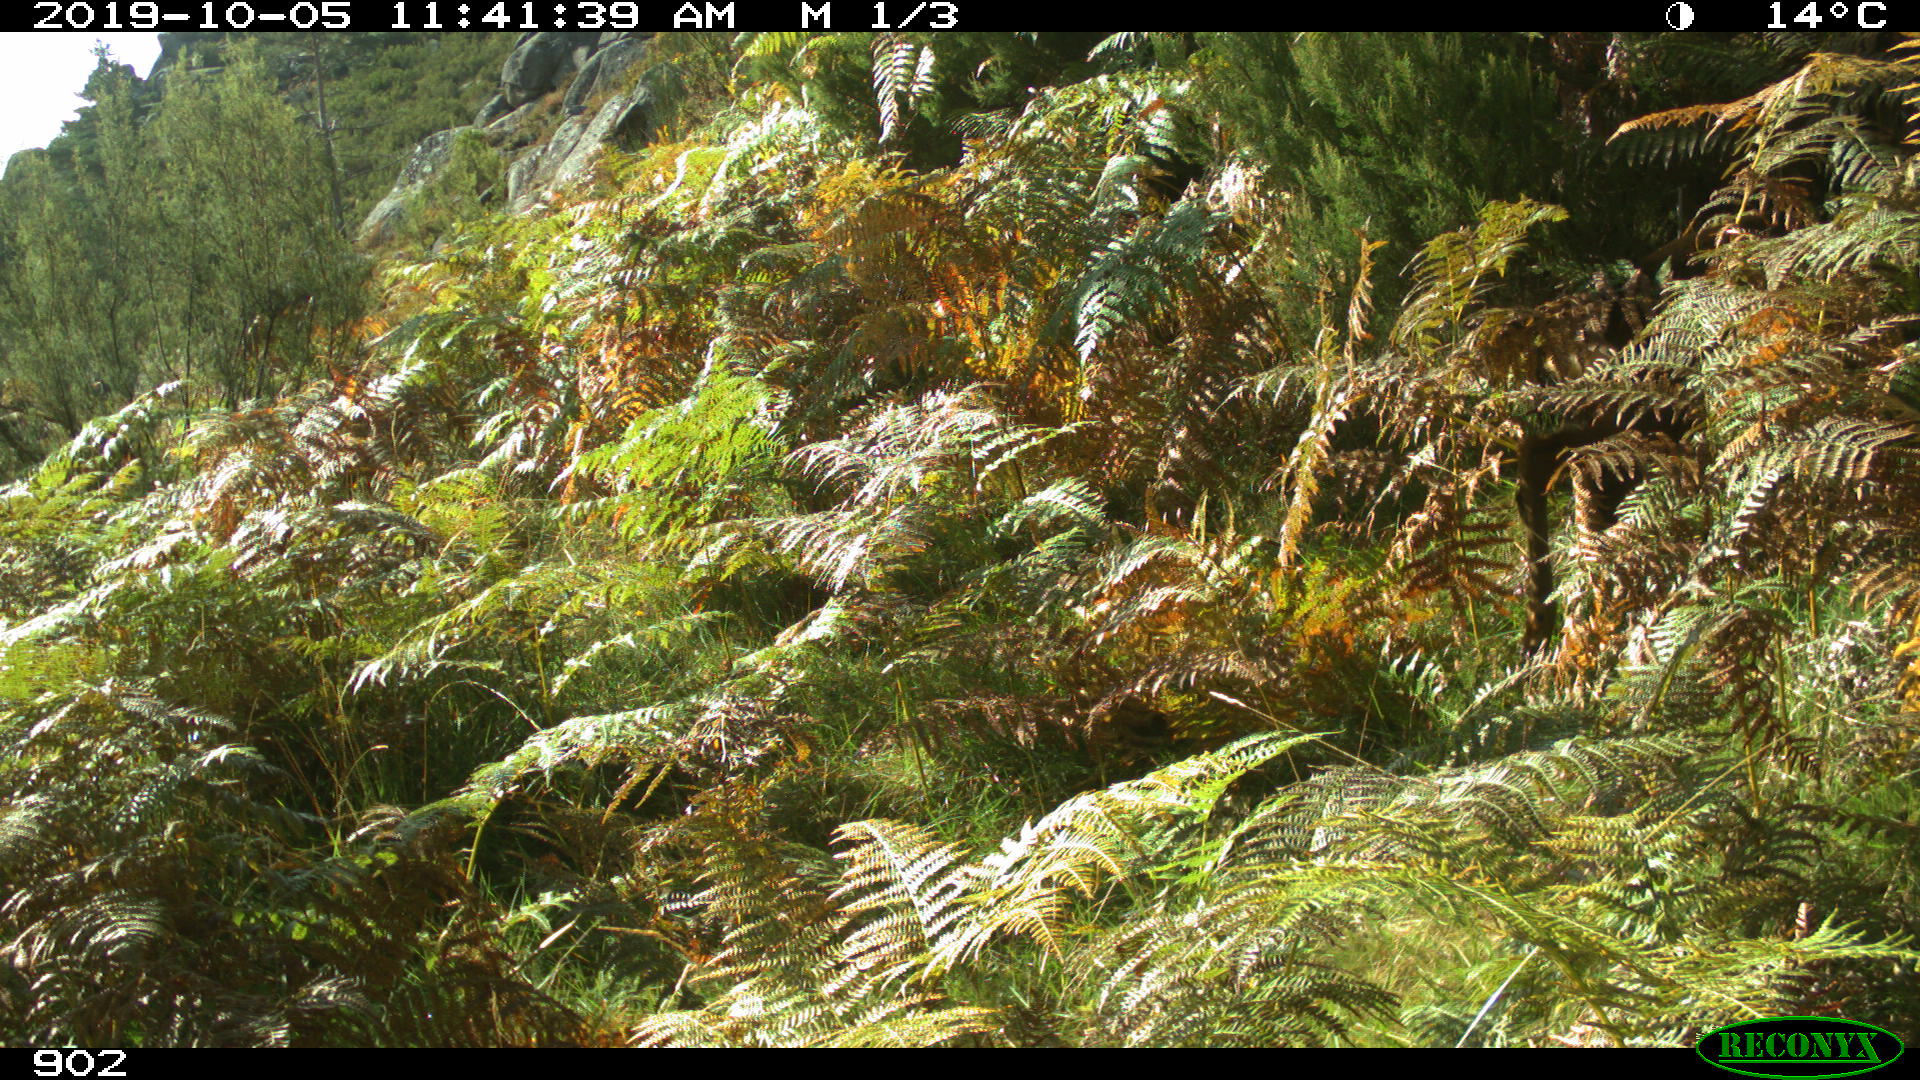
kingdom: Animalia
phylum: Chordata
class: Mammalia
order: Artiodactyla
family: Cervidae
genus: Capreolus
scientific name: Capreolus capreolus
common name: Western roe deer
